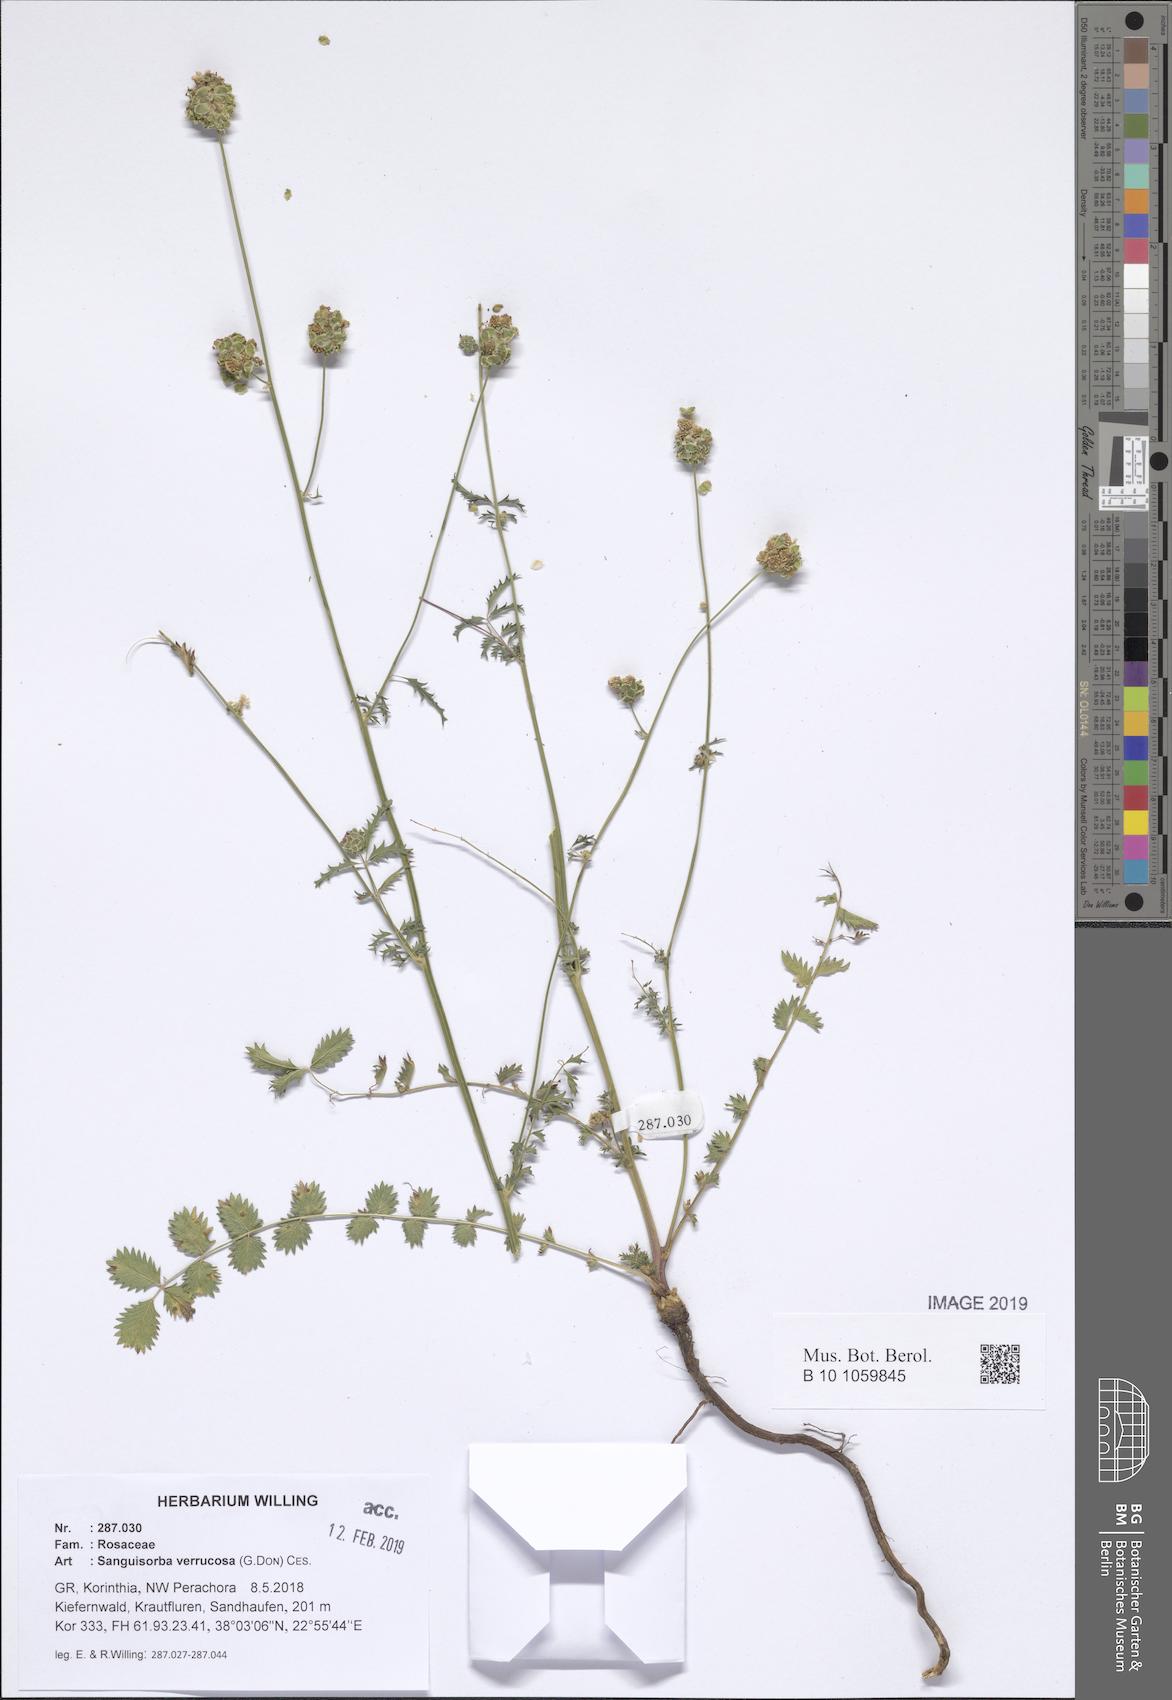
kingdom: Plantae
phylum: Tracheophyta
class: Magnoliopsida
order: Rosales
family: Rosaceae
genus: Poterium
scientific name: Poterium verrucosum
